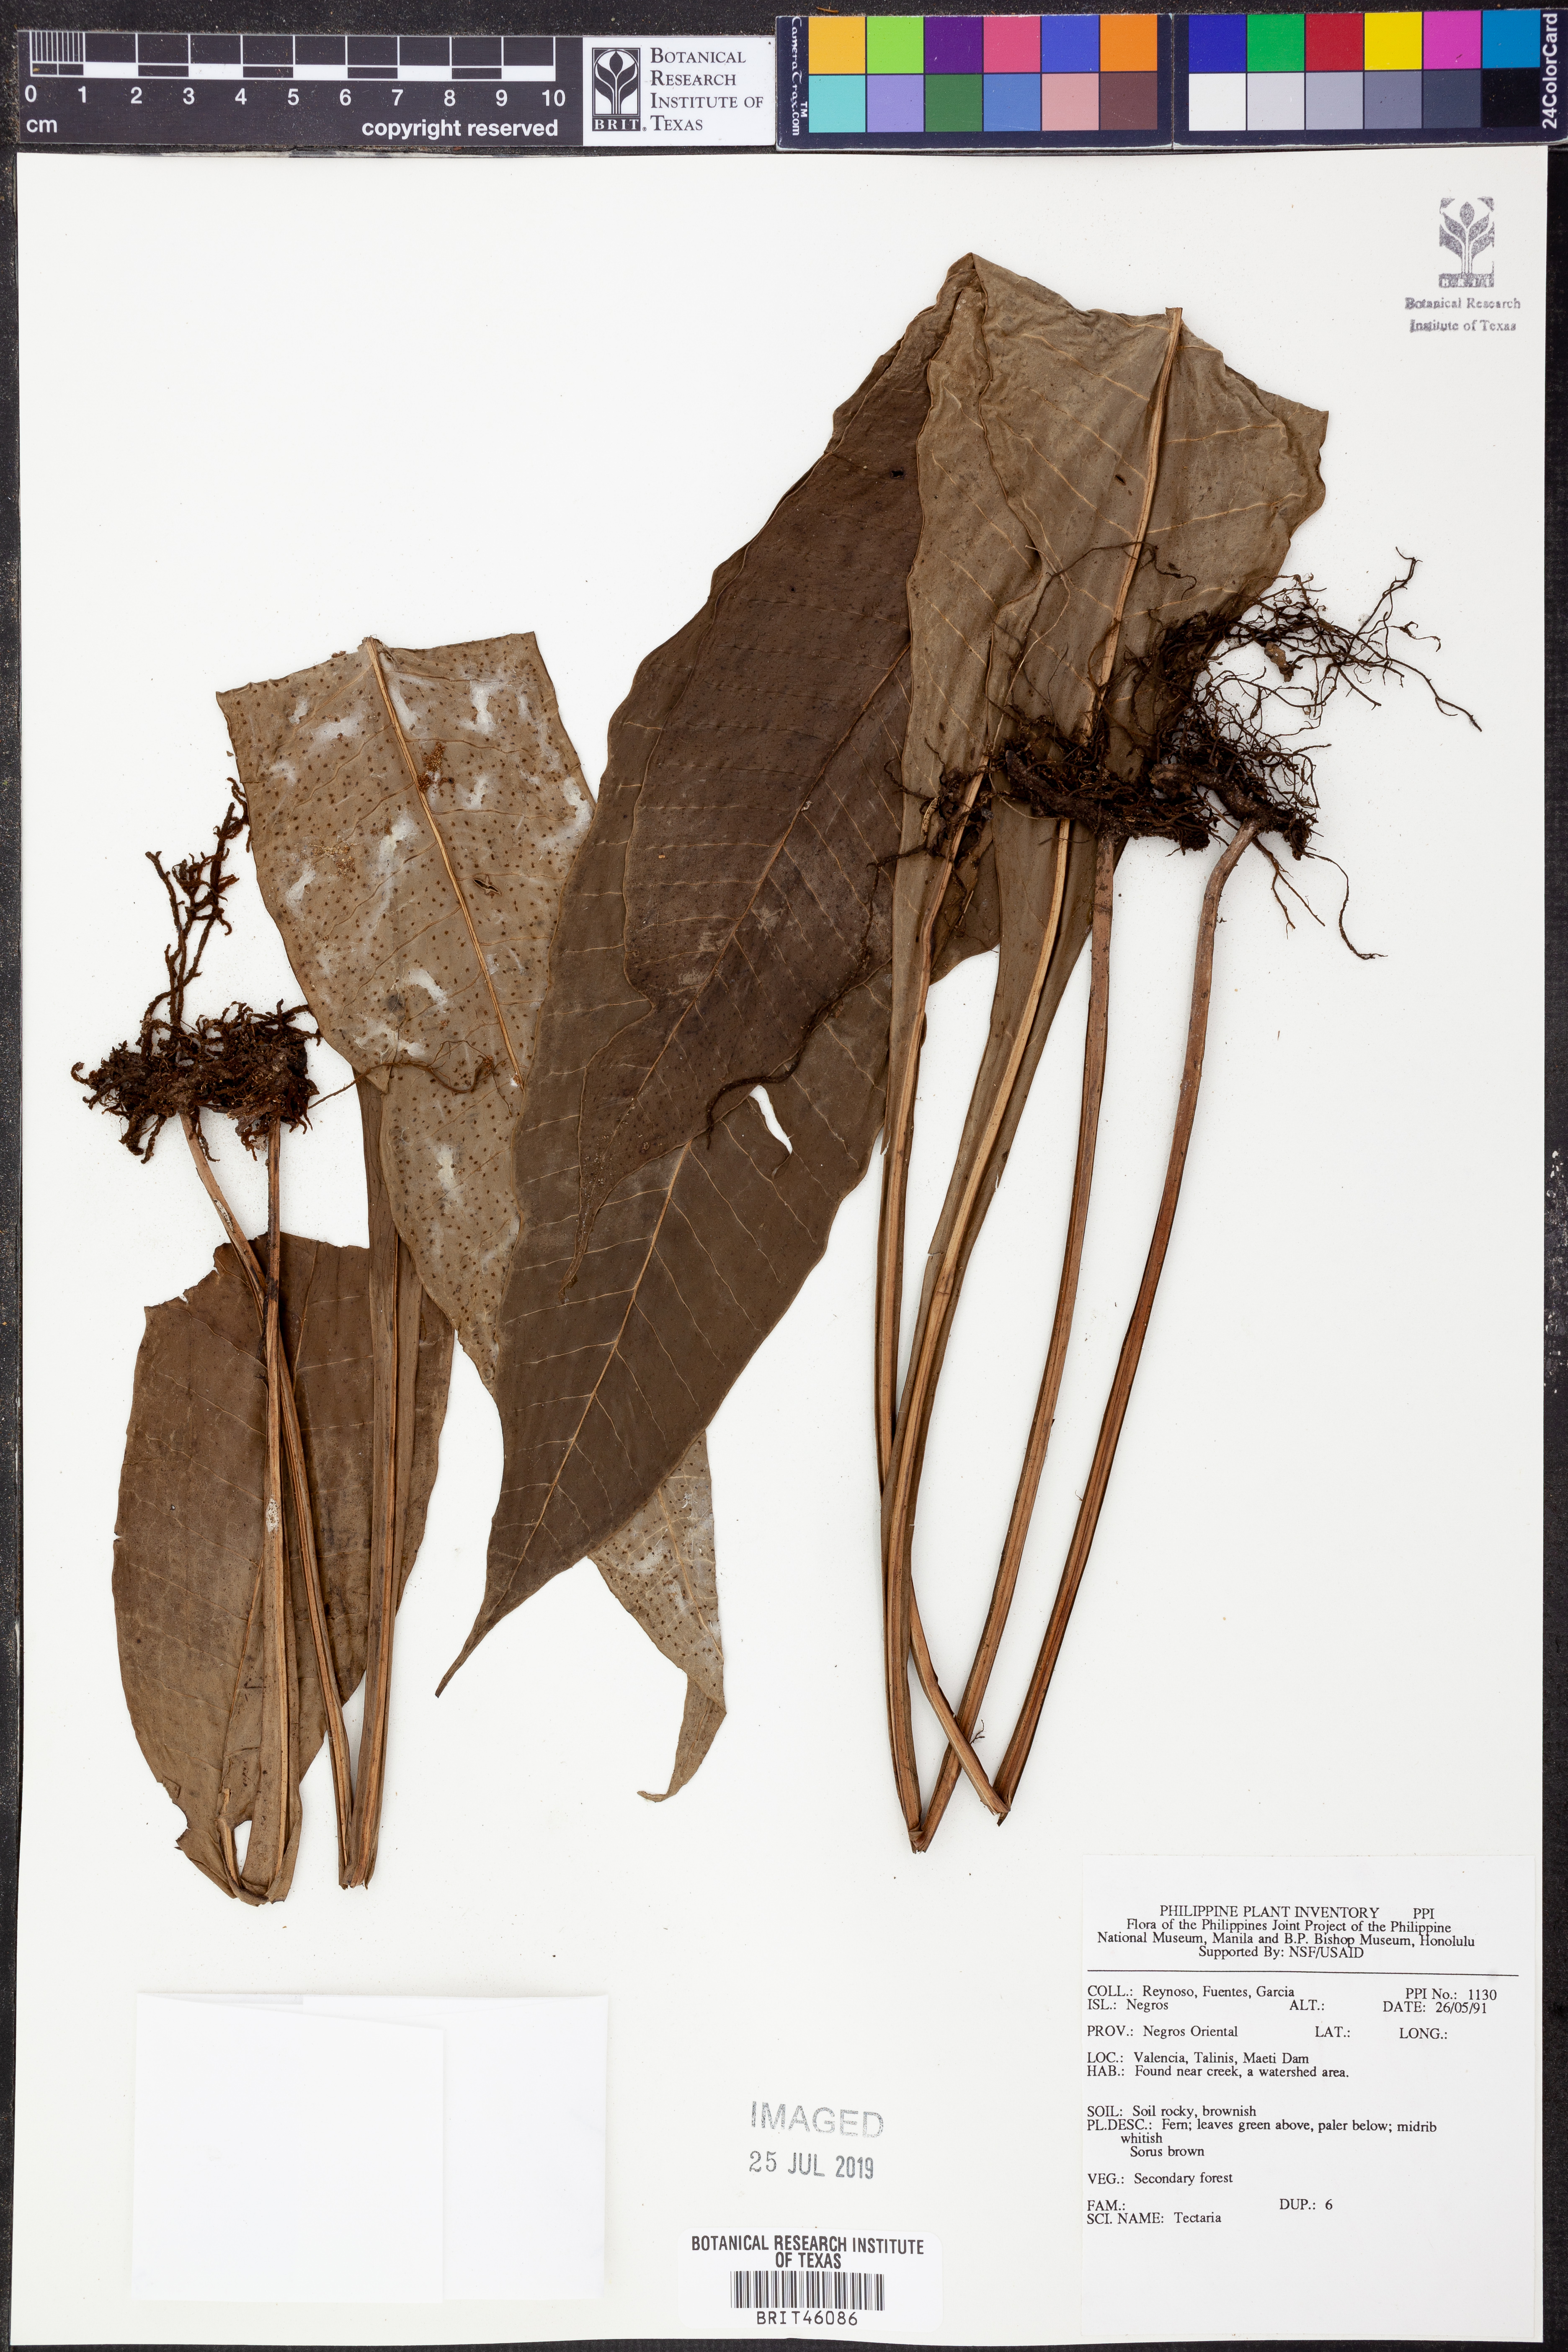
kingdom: Plantae
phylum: Tracheophyta
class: Polypodiopsida
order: Polypodiales
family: Tectariaceae
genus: Tectaria
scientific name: Tectaria
